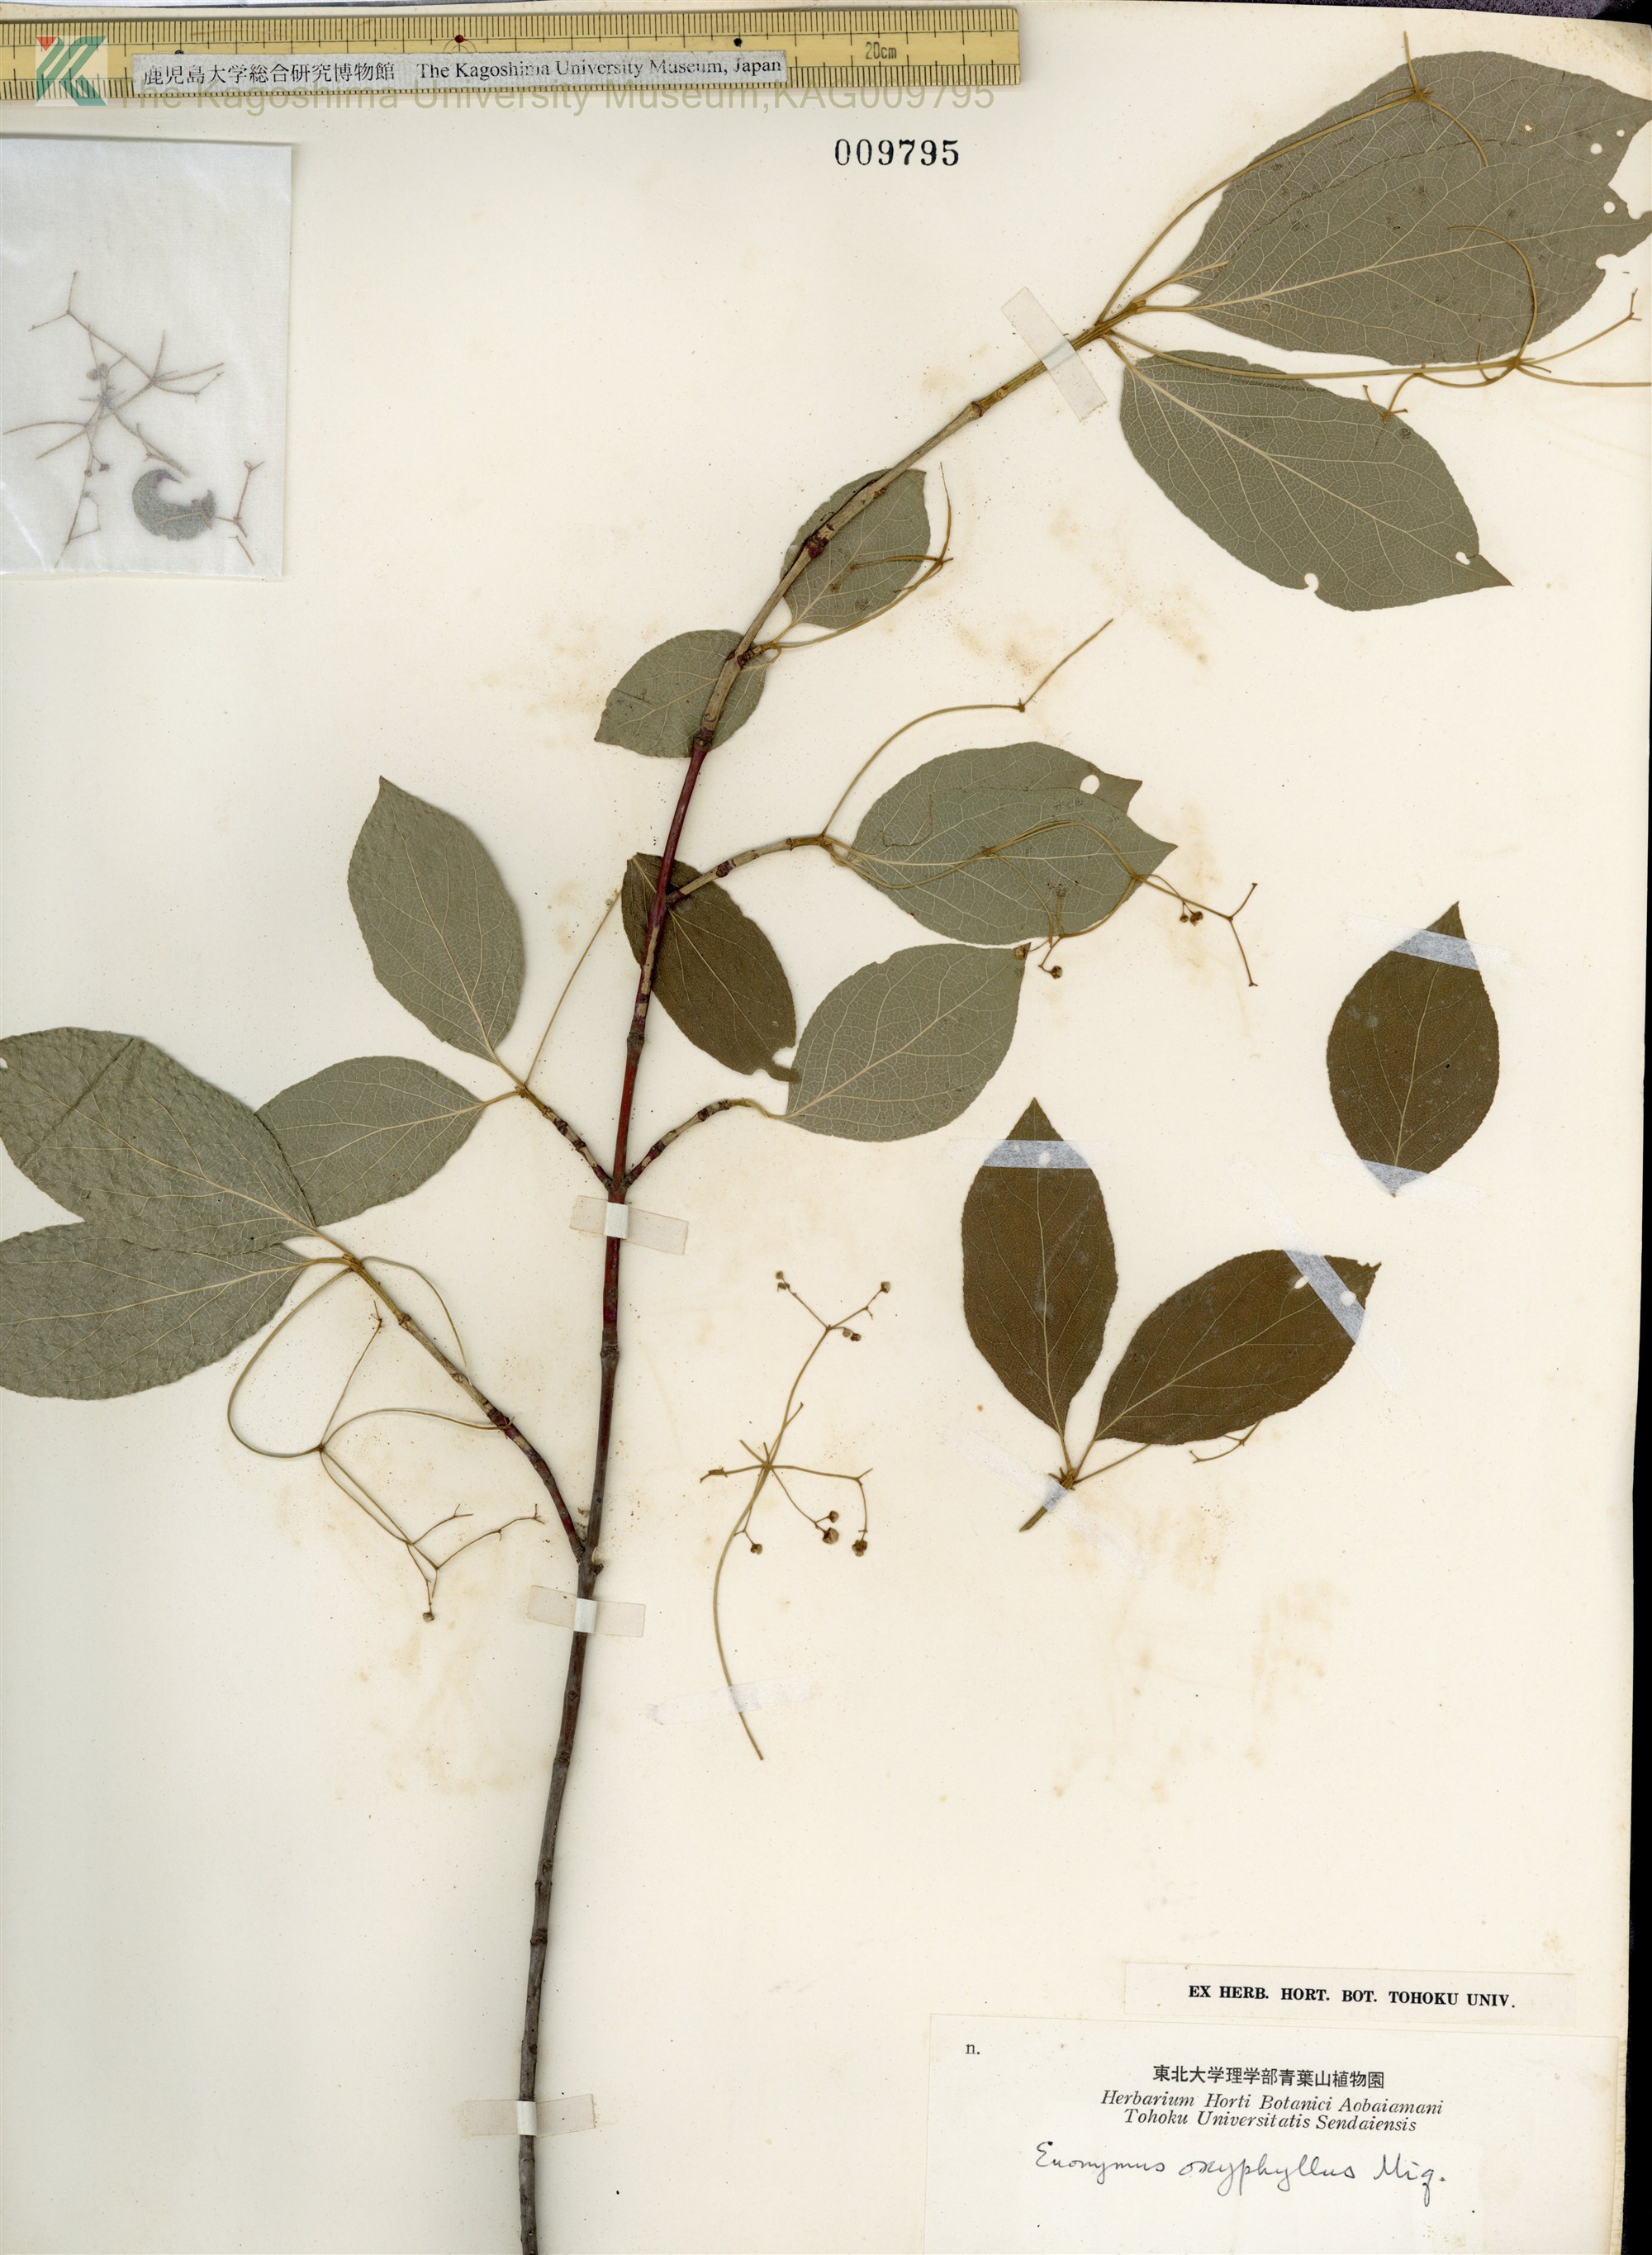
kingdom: Plantae
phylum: Tracheophyta
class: Magnoliopsida
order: Celastrales
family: Celastraceae
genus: Euonymus
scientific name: Euonymus oxyphyllus
